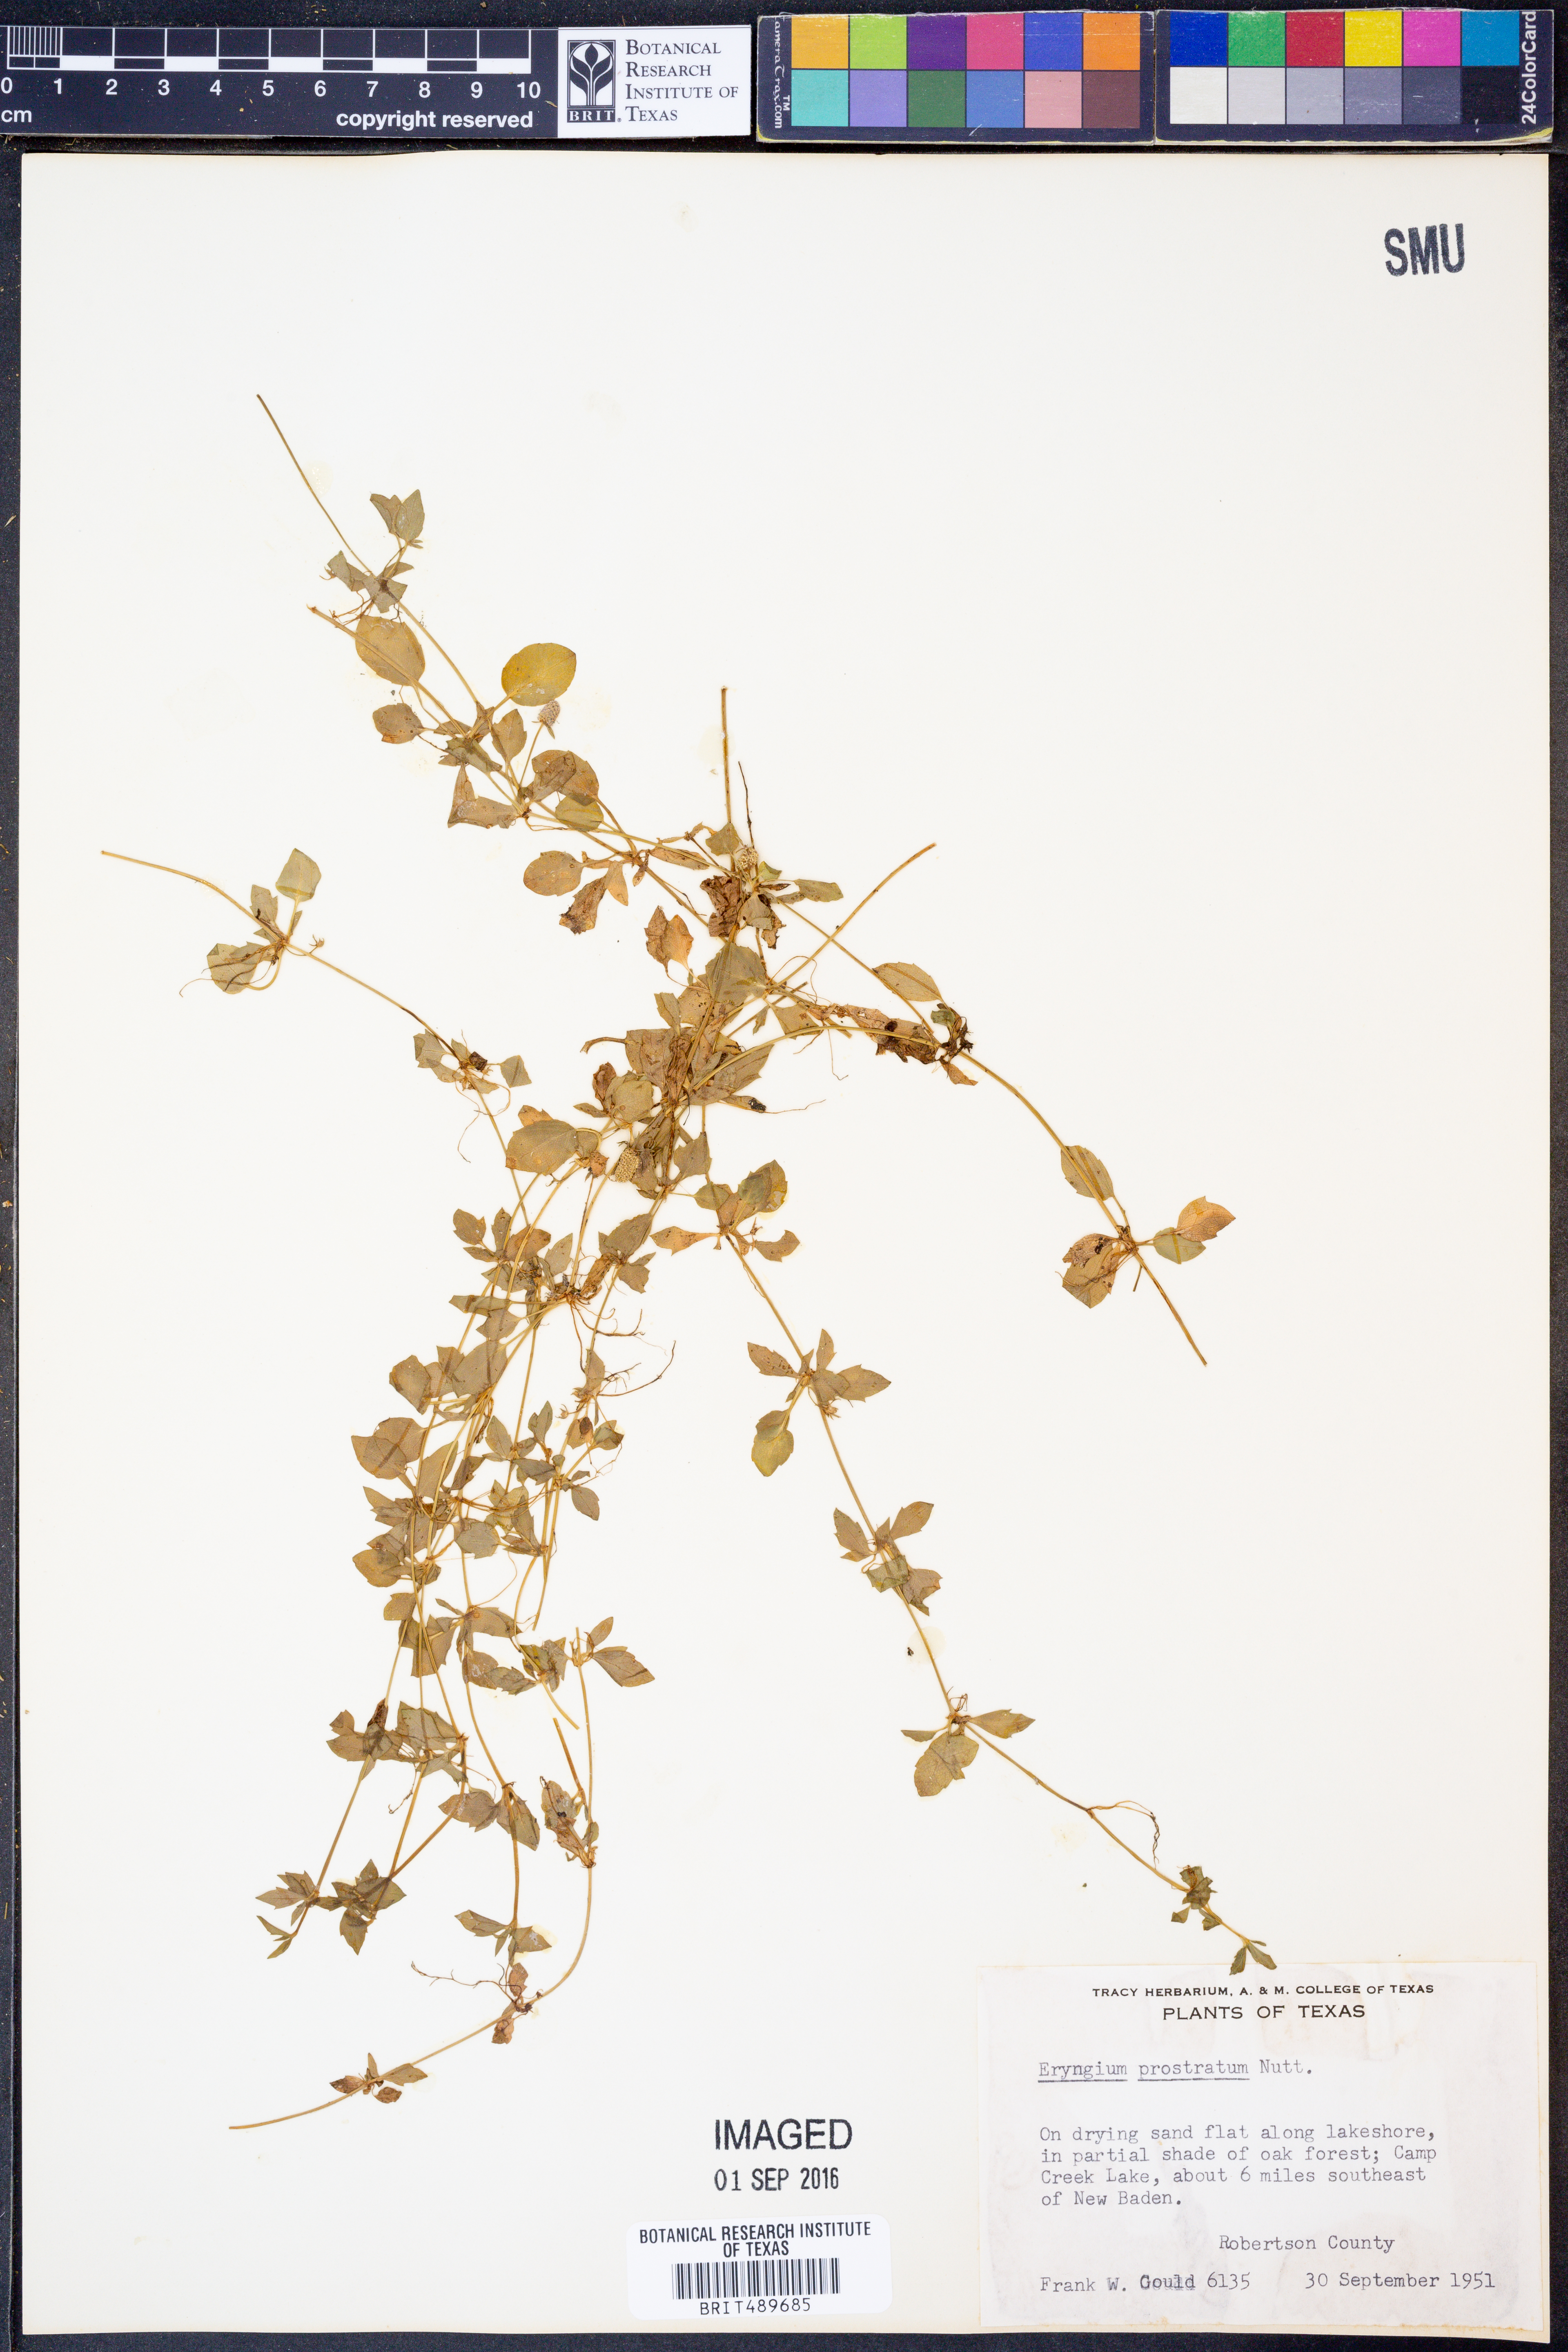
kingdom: Plantae
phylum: Tracheophyta
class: Magnoliopsida
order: Apiales
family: Apiaceae
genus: Eryngium
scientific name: Eryngium prostratum
